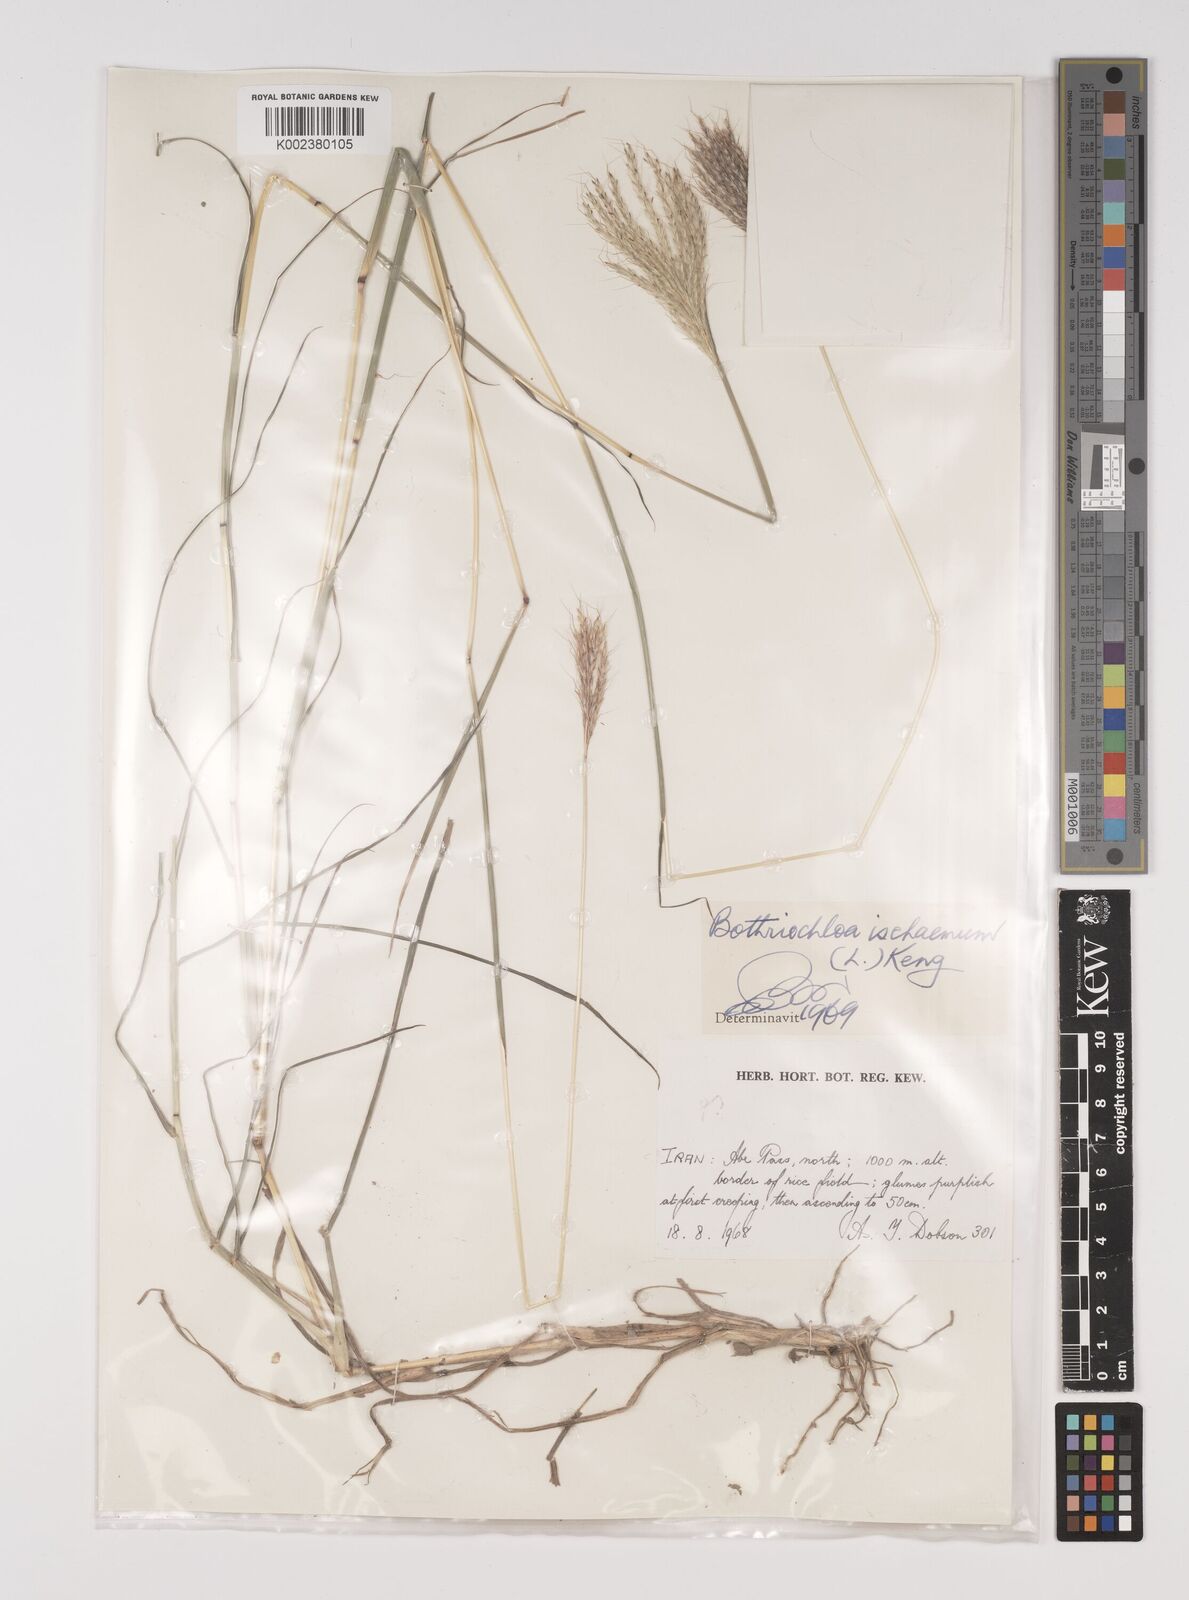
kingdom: Plantae
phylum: Tracheophyta
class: Liliopsida
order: Poales
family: Poaceae
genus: Bothriochloa
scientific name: Bothriochloa ischaemum
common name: Yellow bluestem
